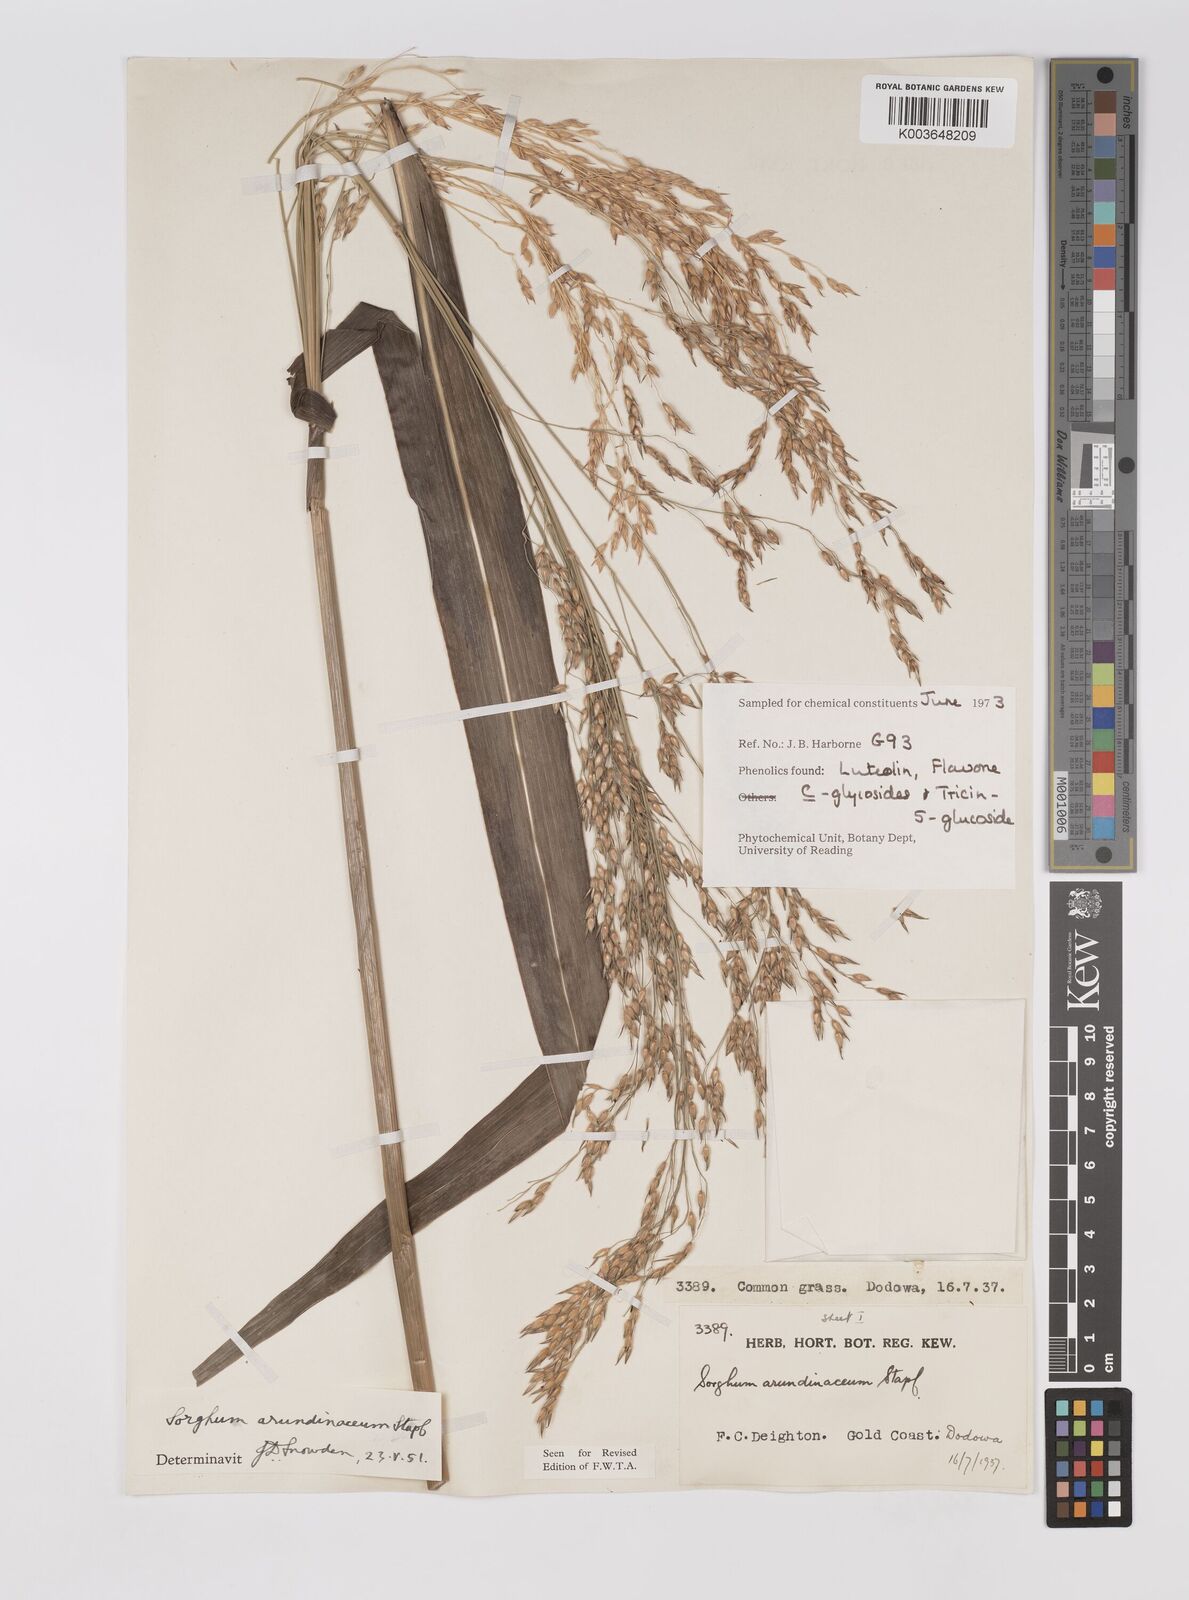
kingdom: Plantae
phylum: Tracheophyta
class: Liliopsida
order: Poales
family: Poaceae
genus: Sorghum
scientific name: Sorghum arundinaceum
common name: Sorghum
